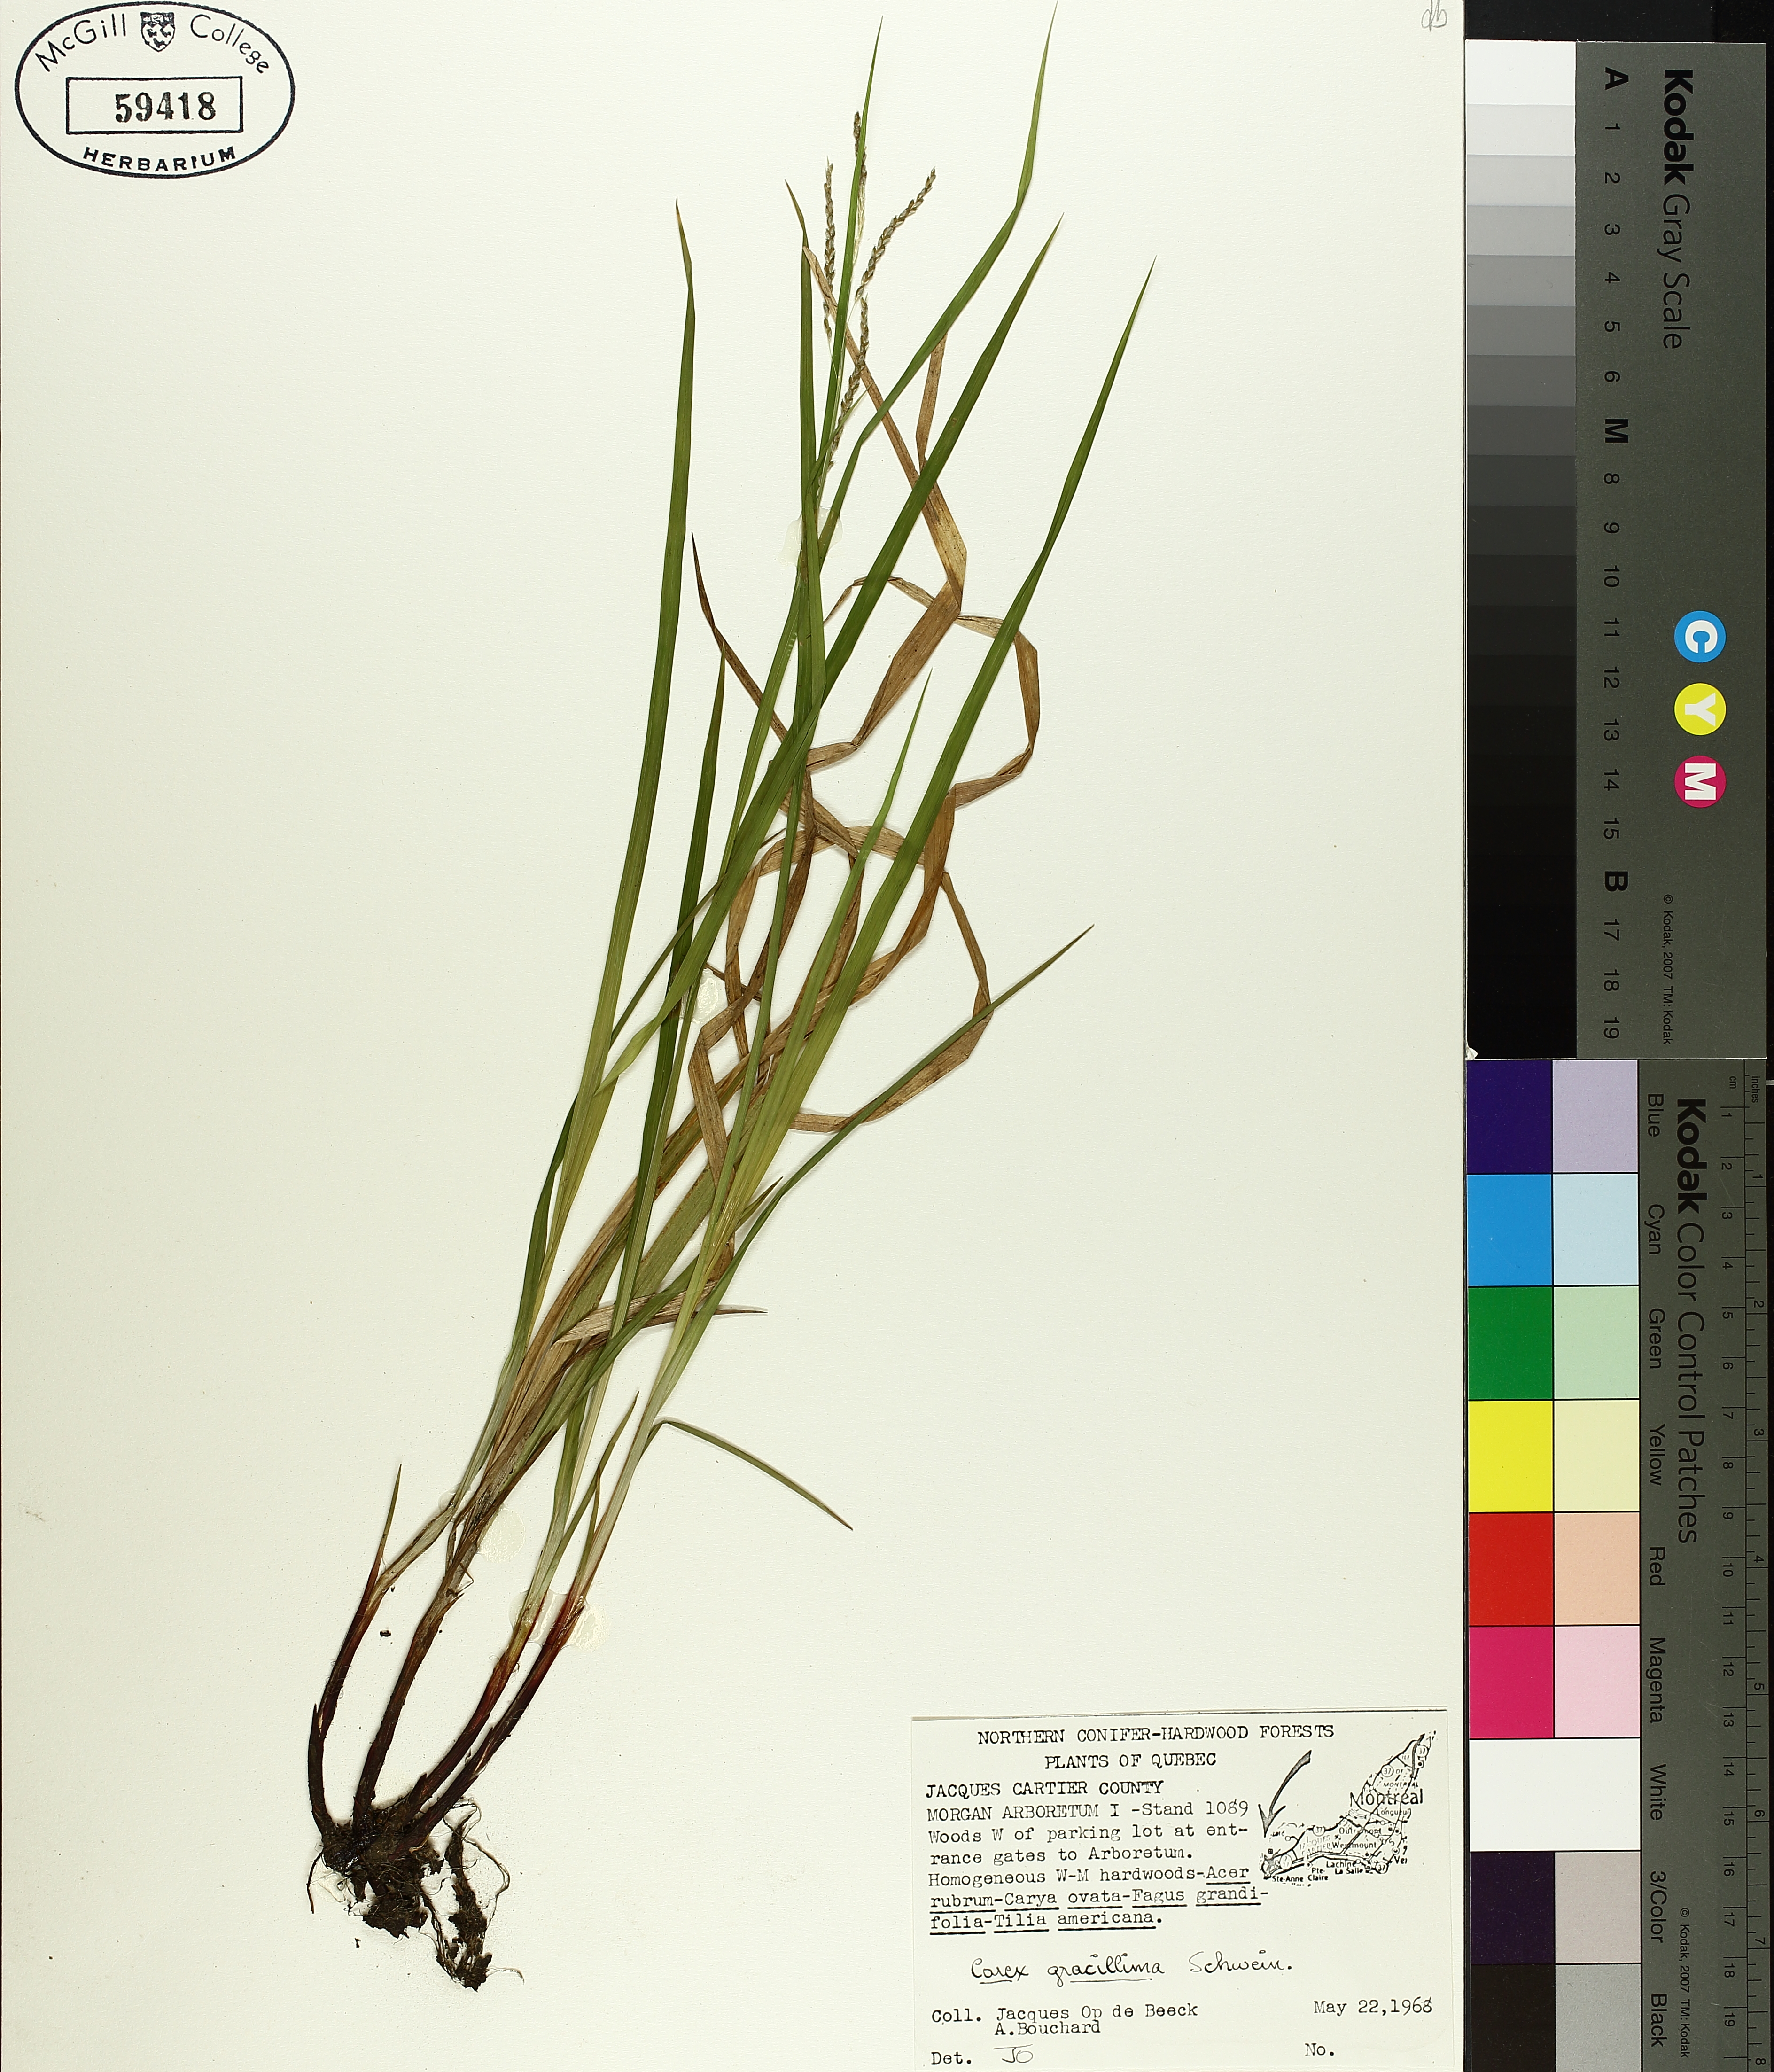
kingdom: Plantae
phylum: Tracheophyta
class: Liliopsida
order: Poales
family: Cyperaceae
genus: Carex
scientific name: Carex gracillima
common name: Graceful sedge
